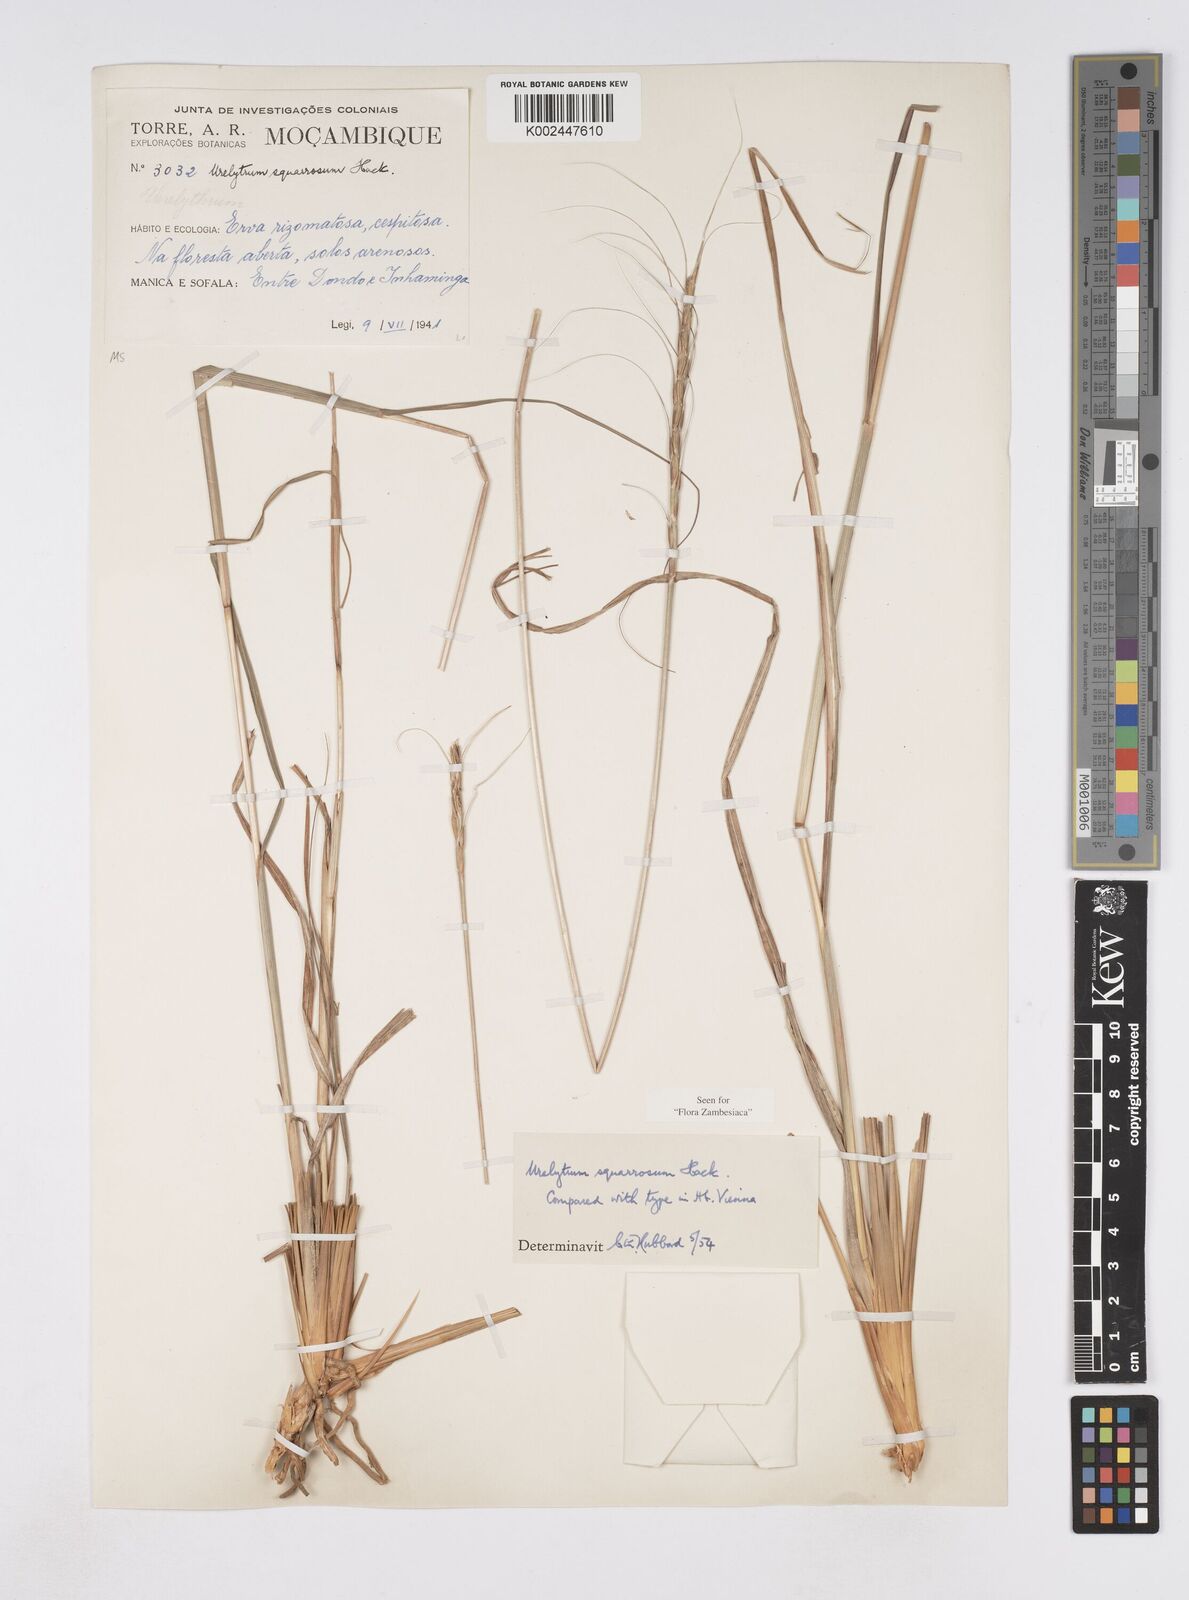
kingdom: Plantae
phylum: Tracheophyta
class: Liliopsida
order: Poales
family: Poaceae
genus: Urelytrum
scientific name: Urelytrum agropyroides
